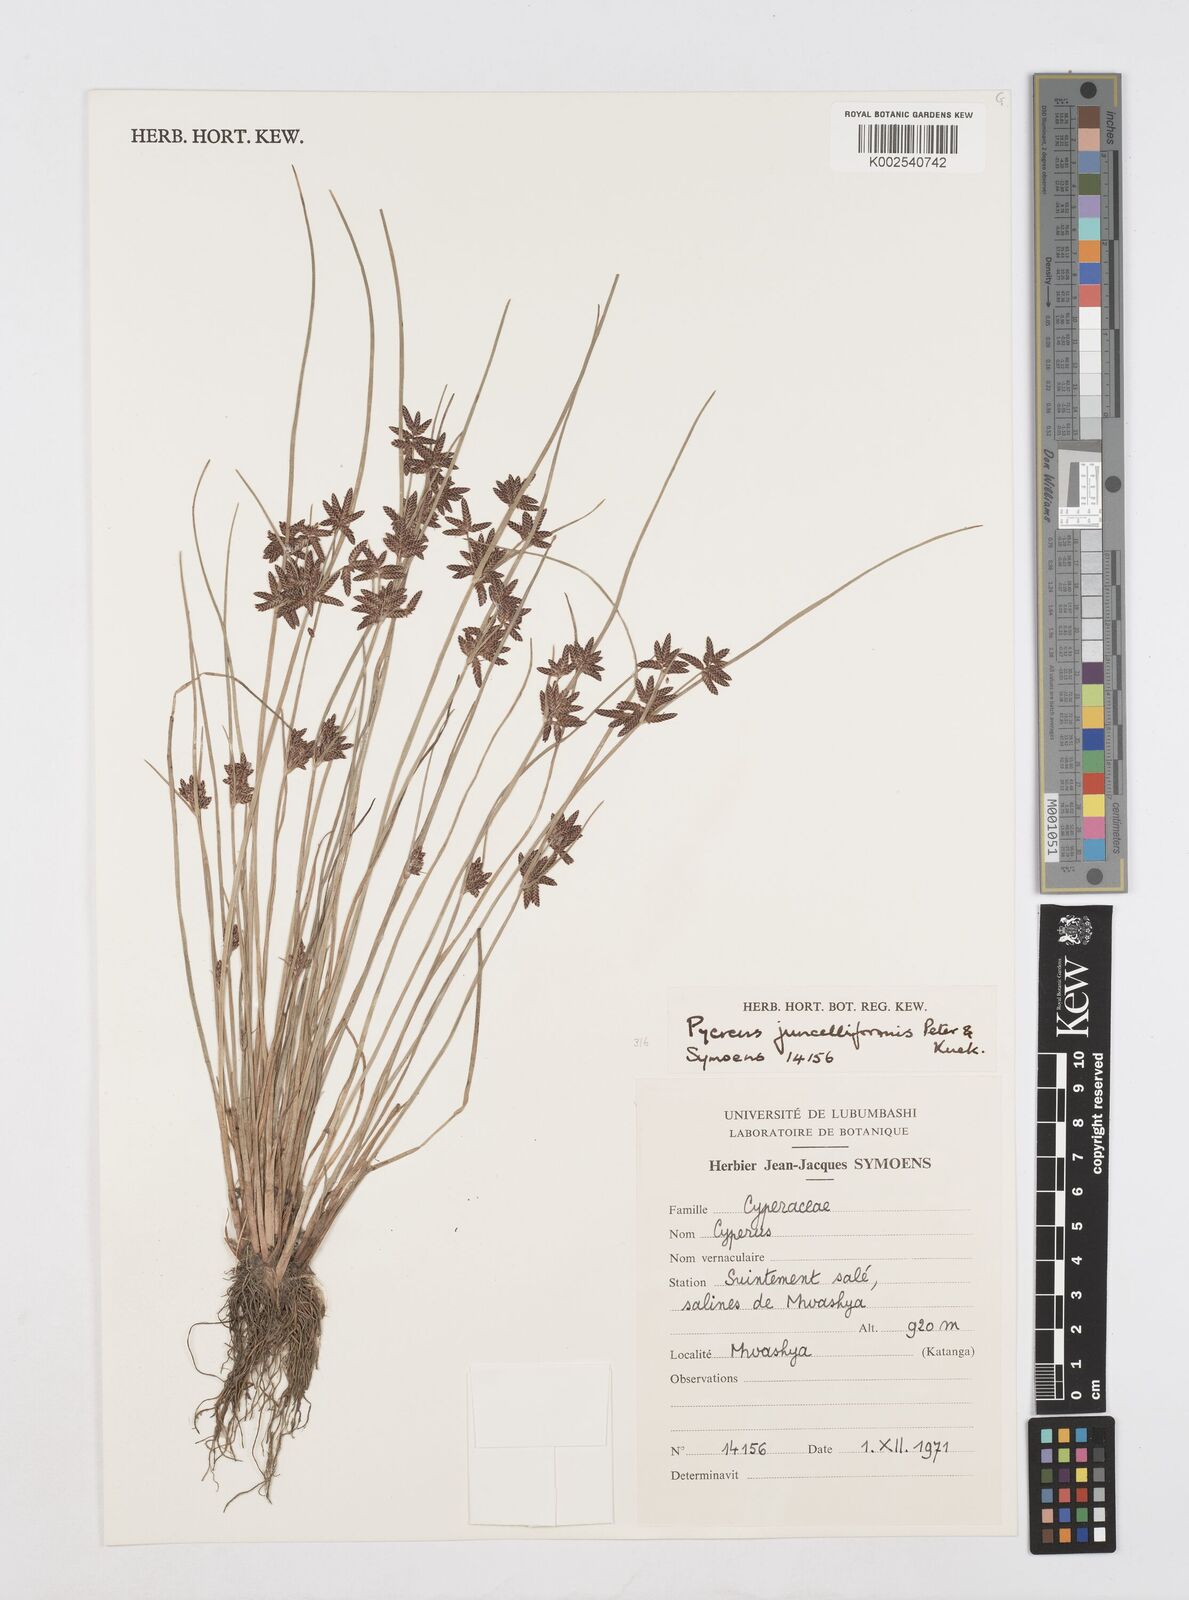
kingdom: Plantae
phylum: Tracheophyta
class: Liliopsida
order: Poales
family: Cyperaceae
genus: Cyperus
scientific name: Cyperus juncelliformis
